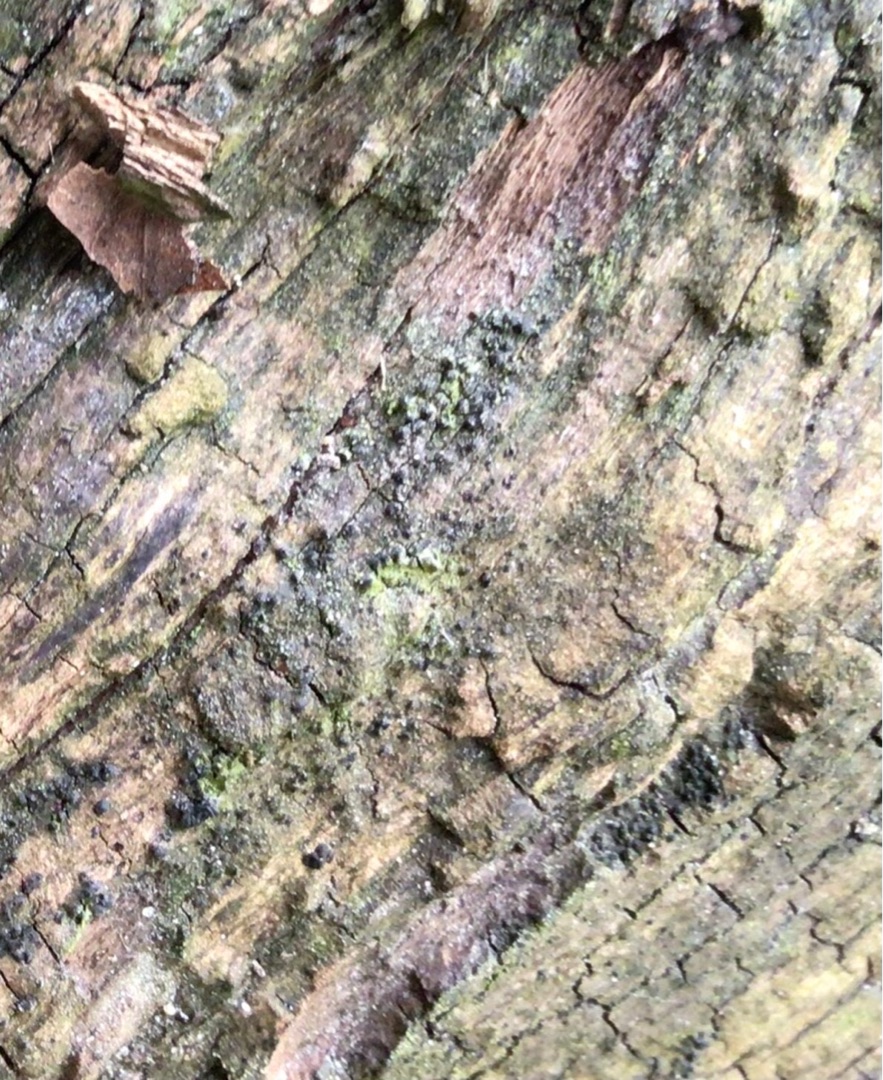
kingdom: Fungi
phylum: Ascomycota
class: Lecanoromycetes
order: Lecanorales
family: Lecanoraceae
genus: Lecidella
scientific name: Lecidella elaeochroma
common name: Grågrøn skivelav
